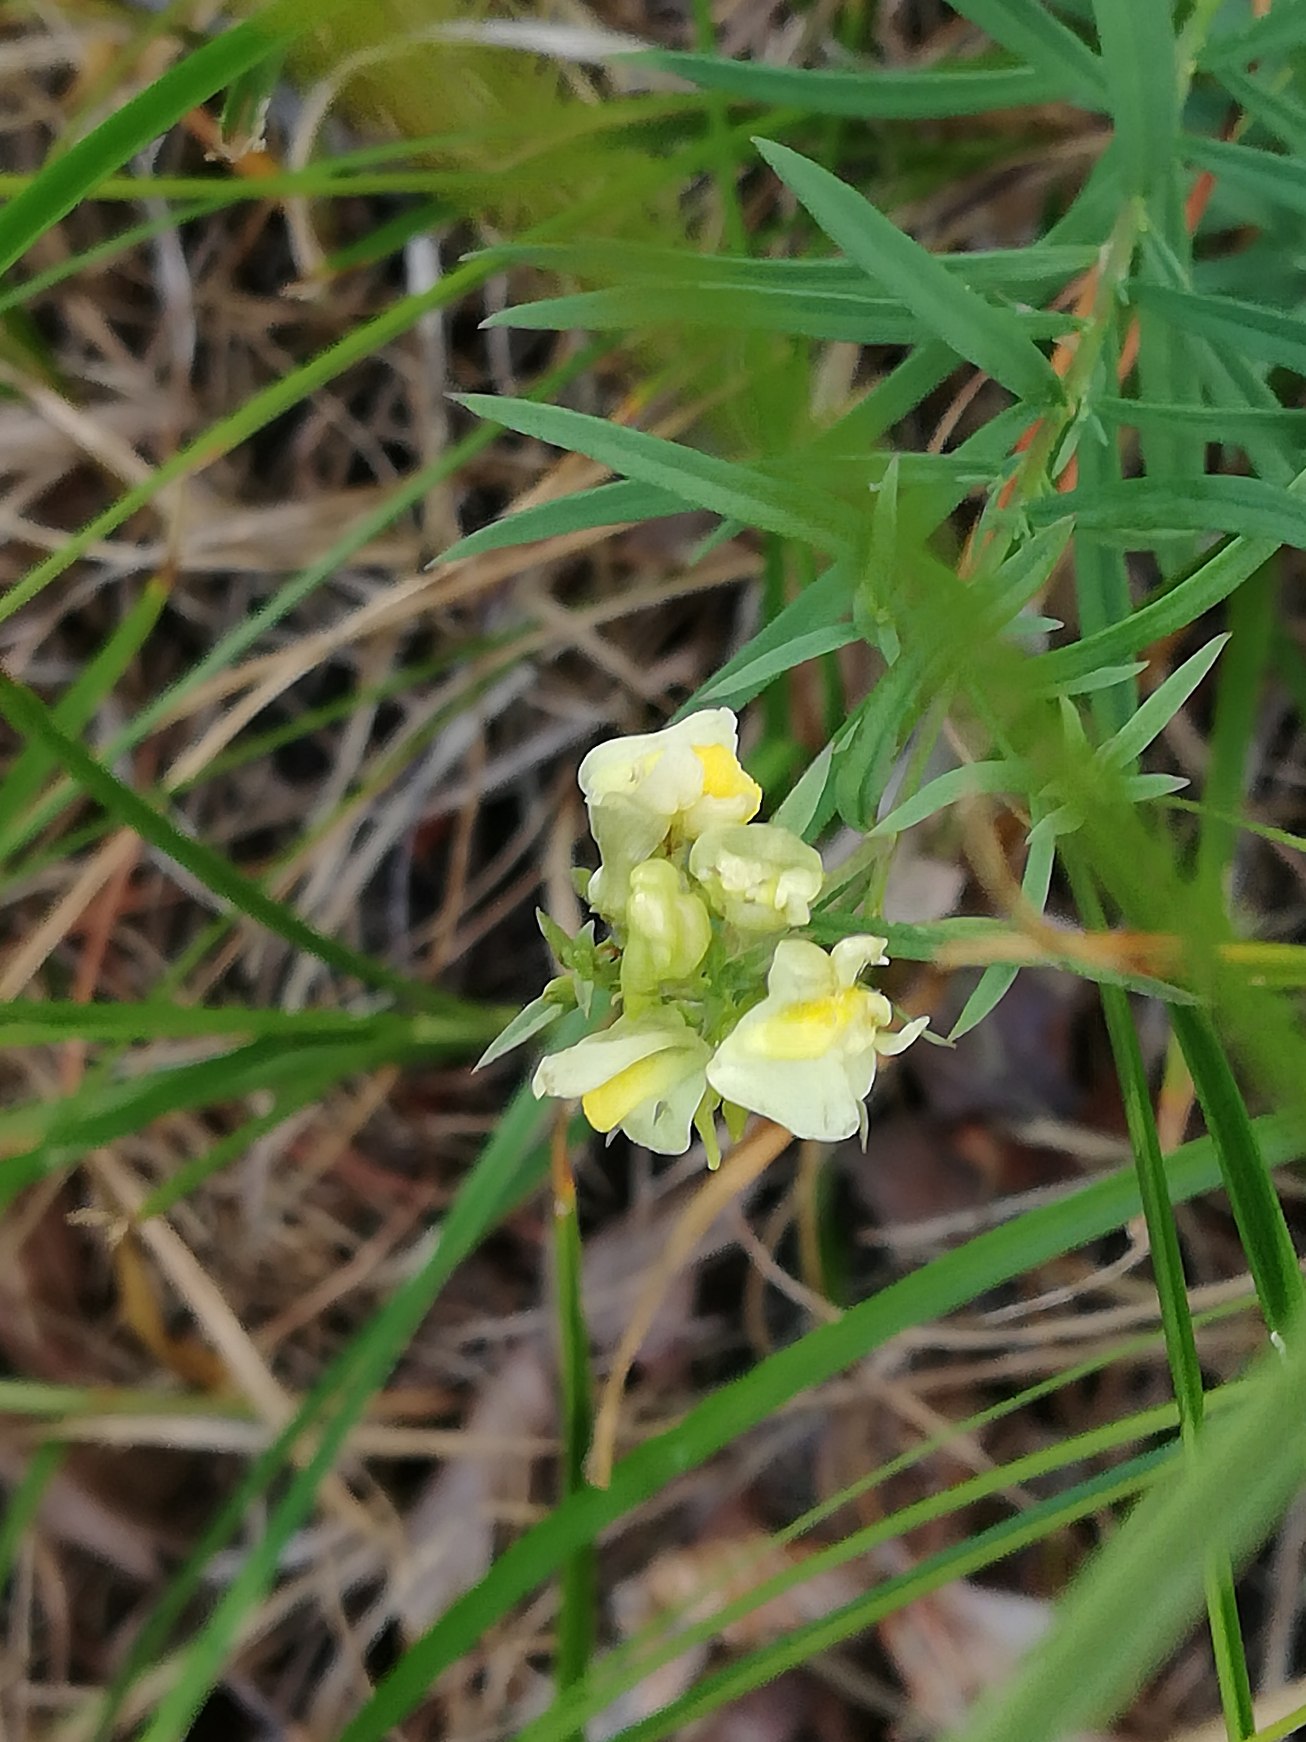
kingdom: Plantae
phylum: Tracheophyta
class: Magnoliopsida
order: Lamiales
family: Plantaginaceae
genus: Linaria
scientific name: Linaria vulgaris
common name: Almindelig torskemund
